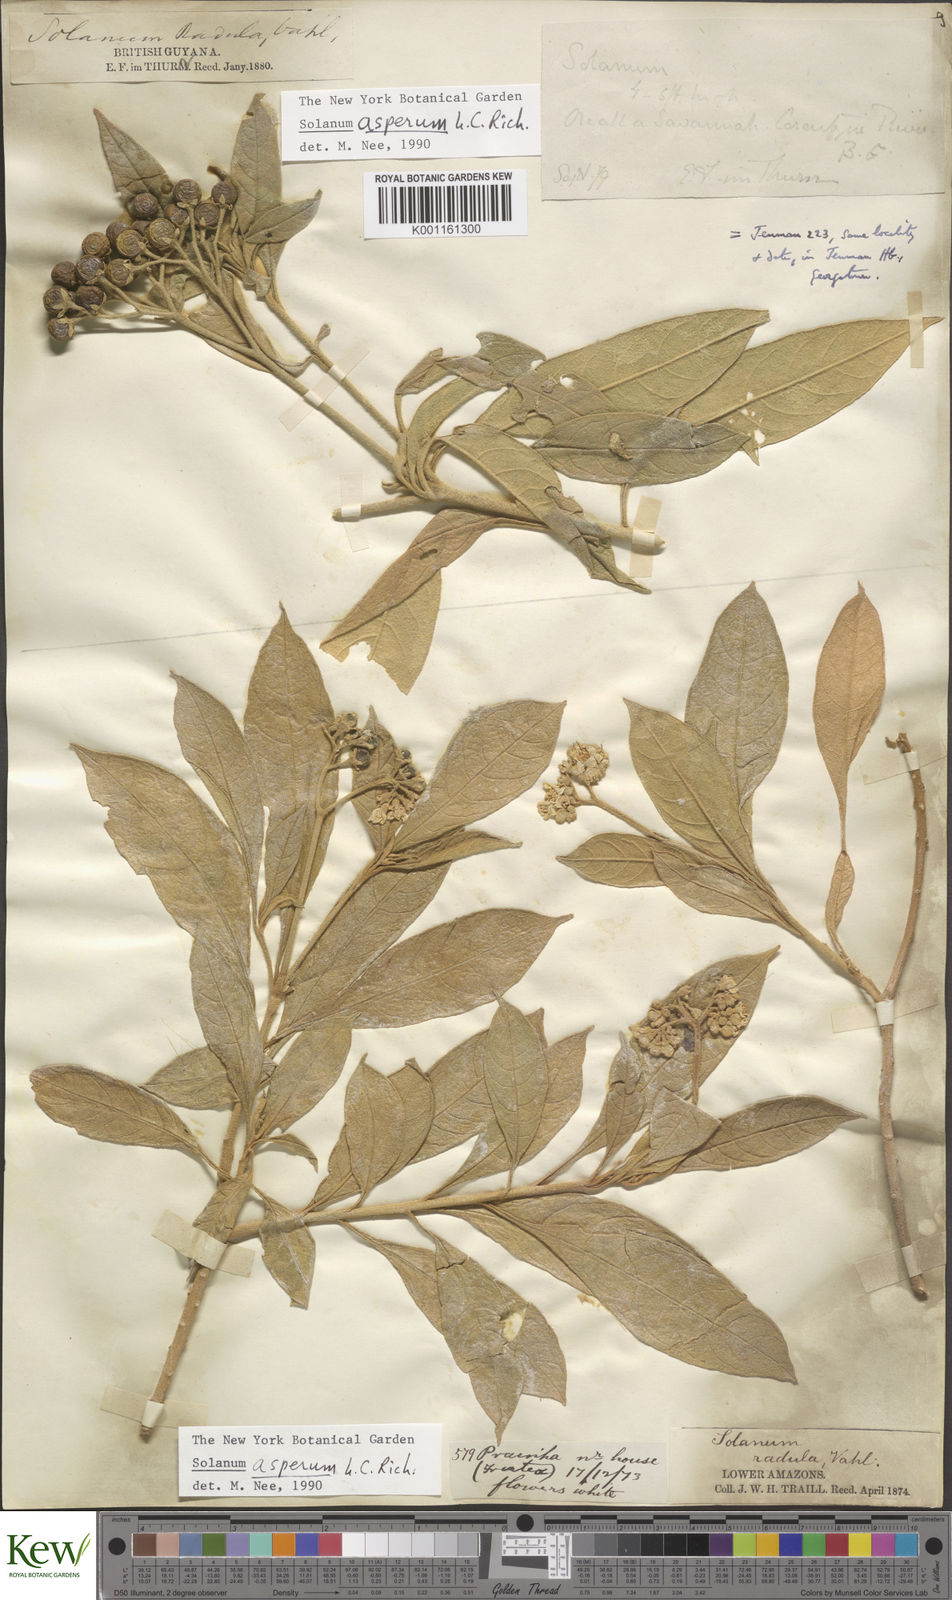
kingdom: Plantae
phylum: Tracheophyta
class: Magnoliopsida
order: Solanales
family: Solanaceae
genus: Solanum
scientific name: Solanum asperum
